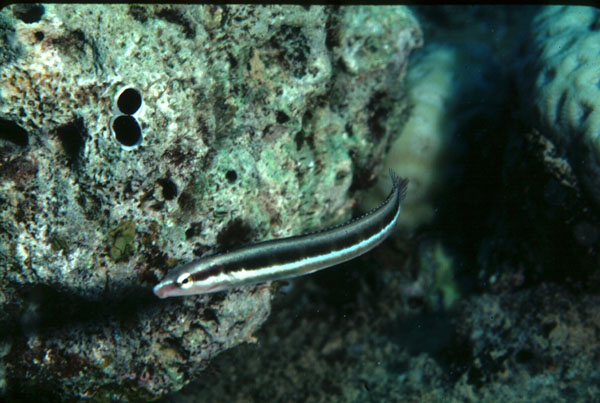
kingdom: Animalia
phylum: Chordata
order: Perciformes
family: Blenniidae
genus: Aspidontus
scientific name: Aspidontus dussumieri
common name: Lance blenny
